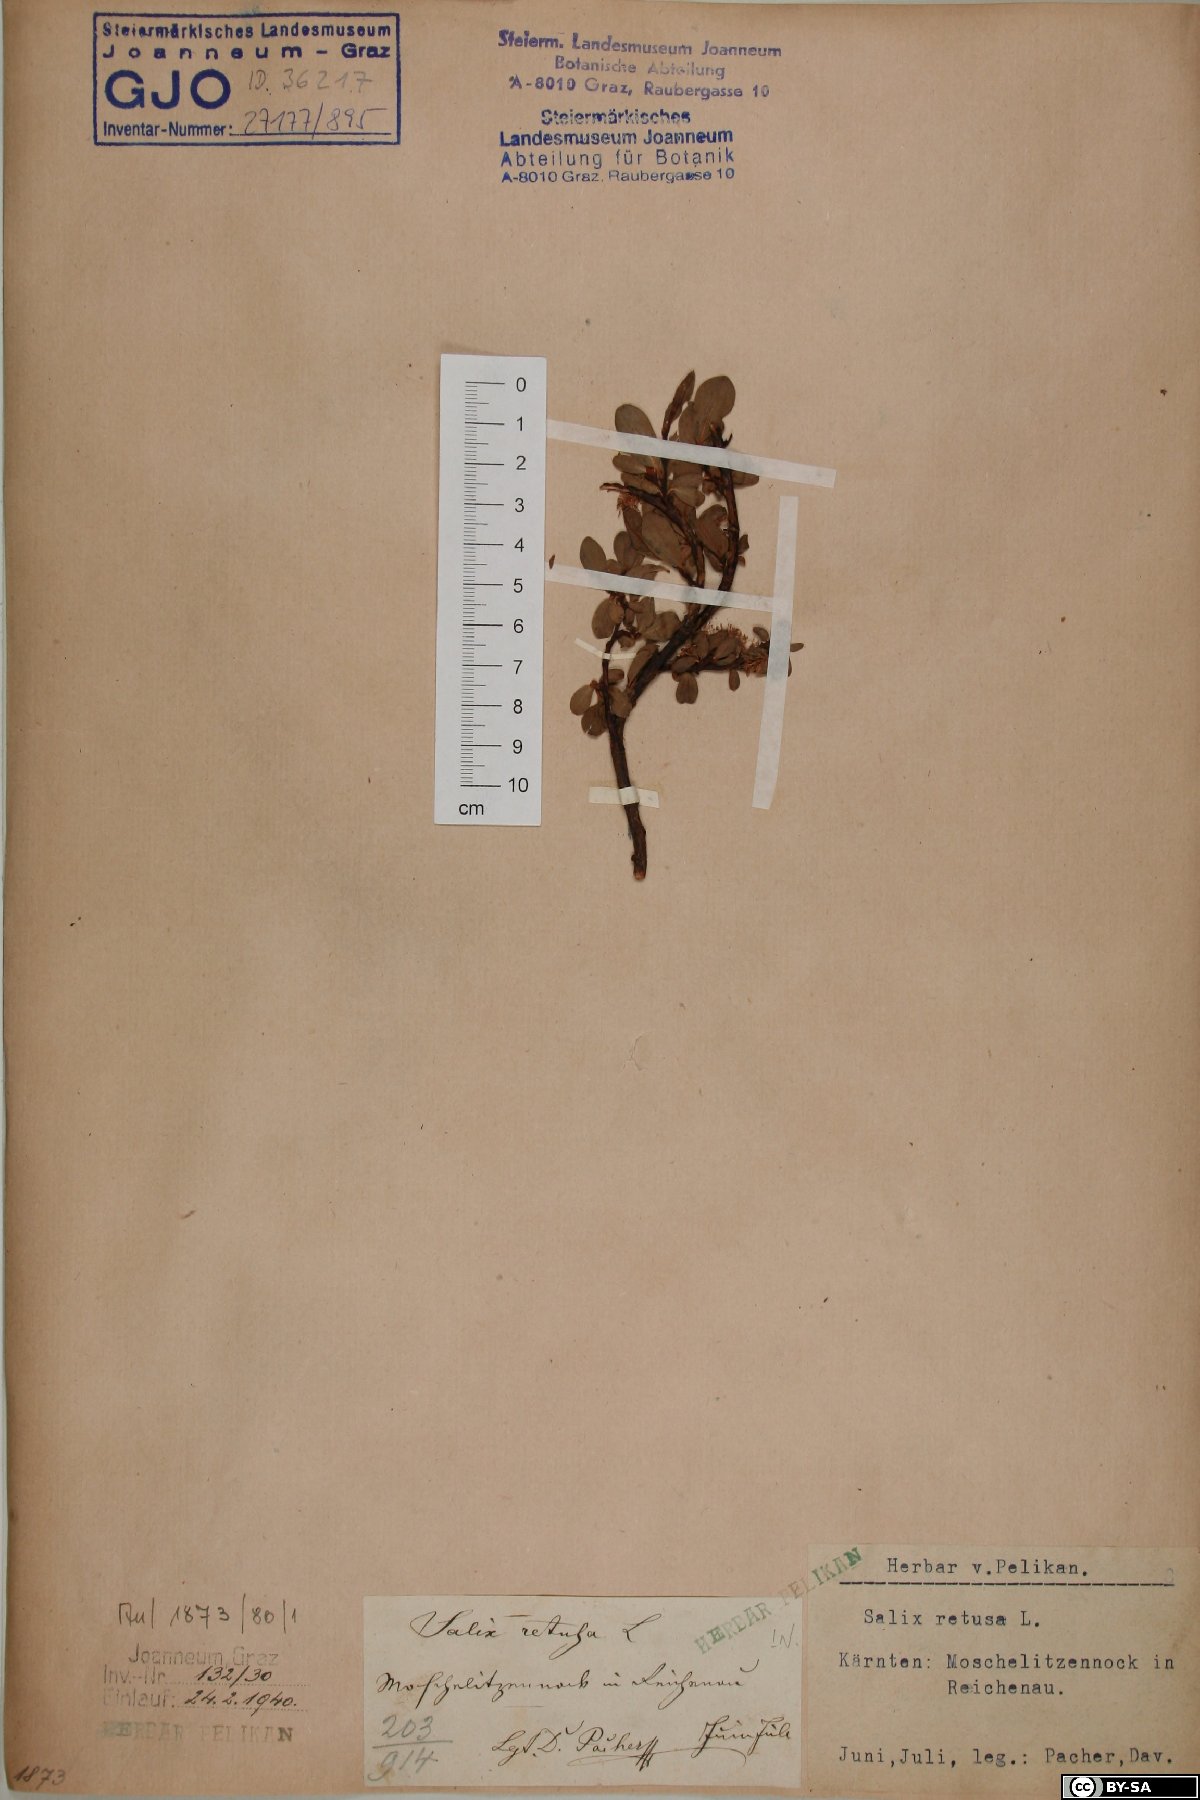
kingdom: Plantae
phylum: Tracheophyta
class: Magnoliopsida
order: Malpighiales
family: Salicaceae
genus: Salix
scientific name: Salix retusa
